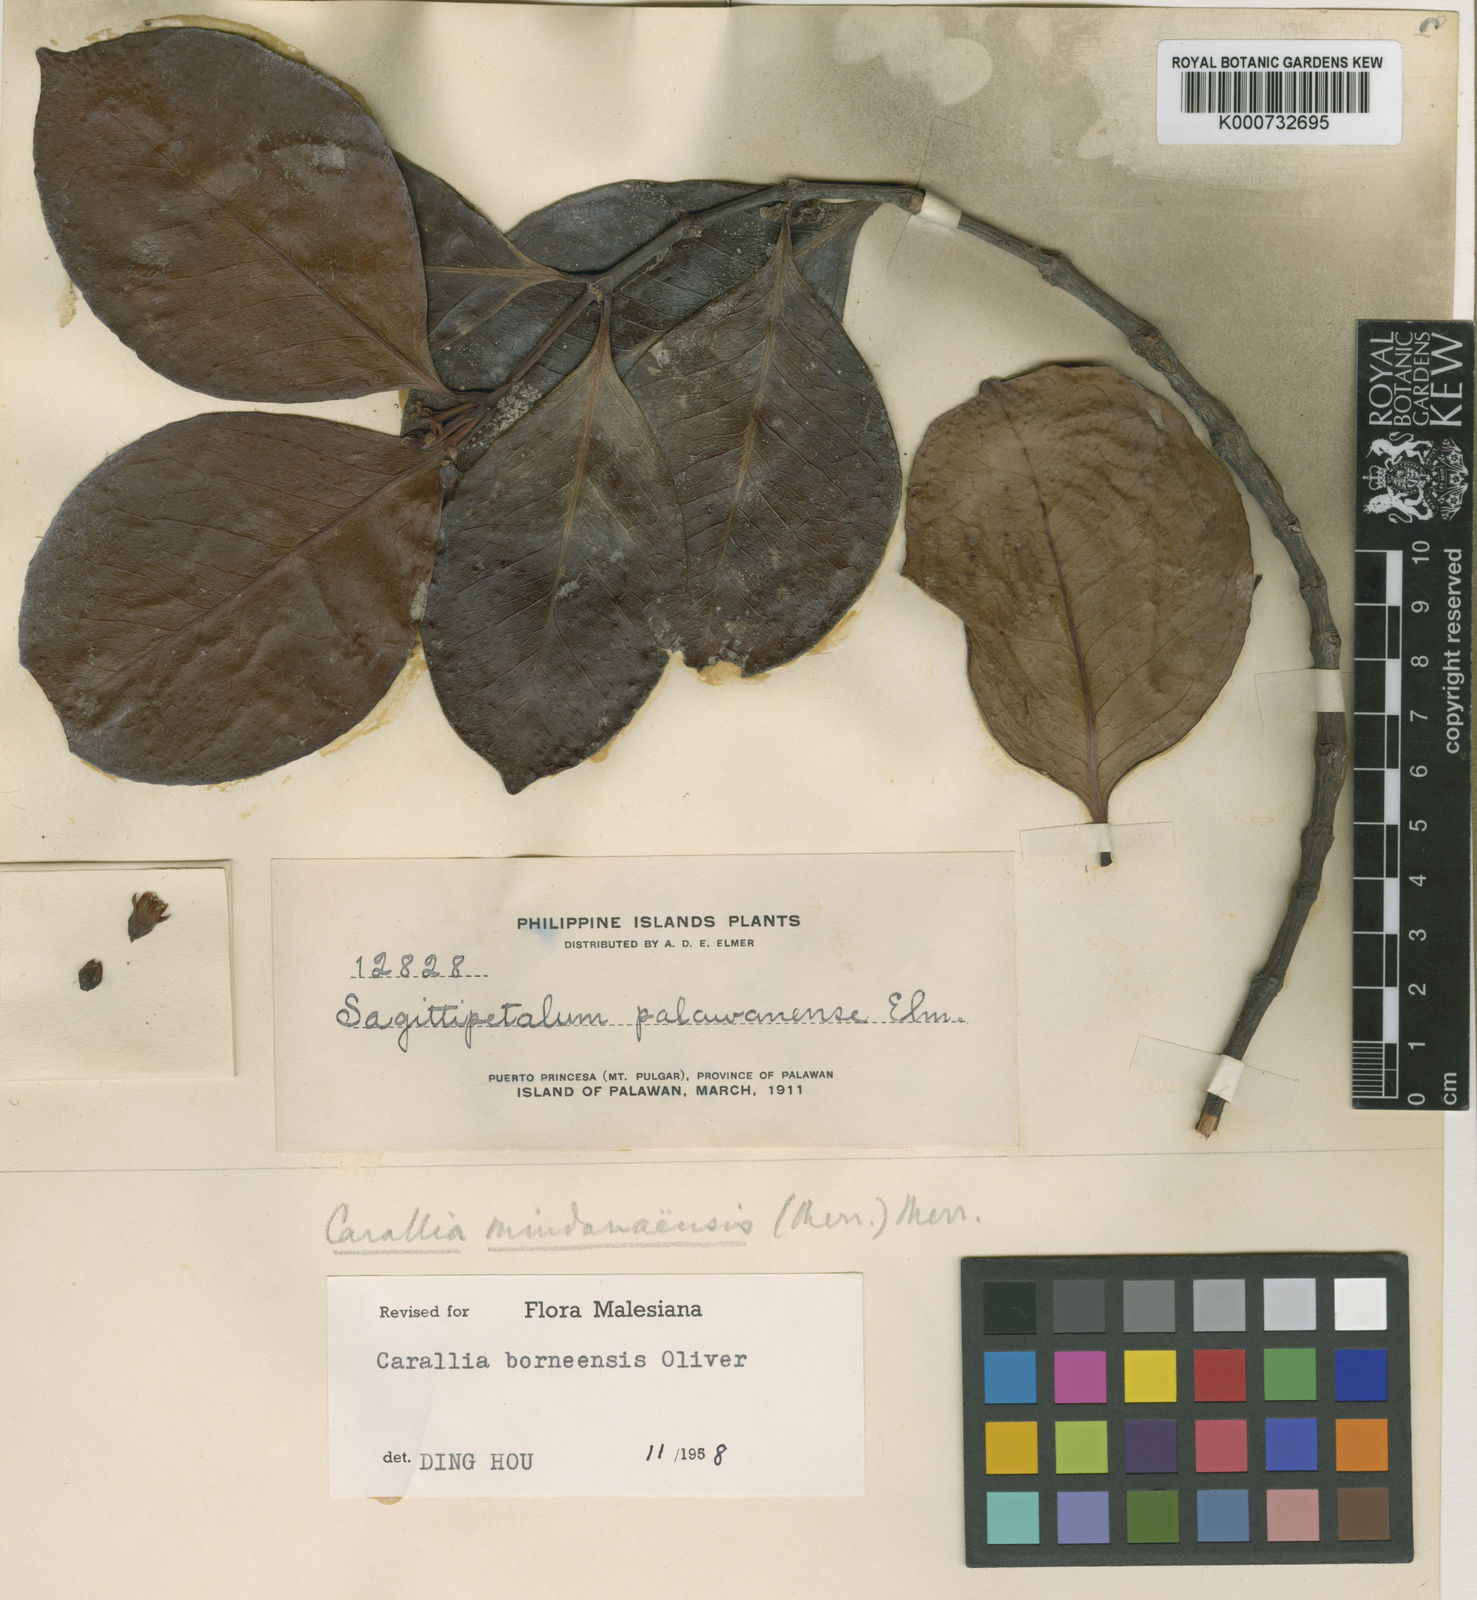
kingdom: Plantae
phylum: Tracheophyta
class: Magnoliopsida
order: Malpighiales
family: Rhizophoraceae
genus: Carallia
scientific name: Carallia borneensis
